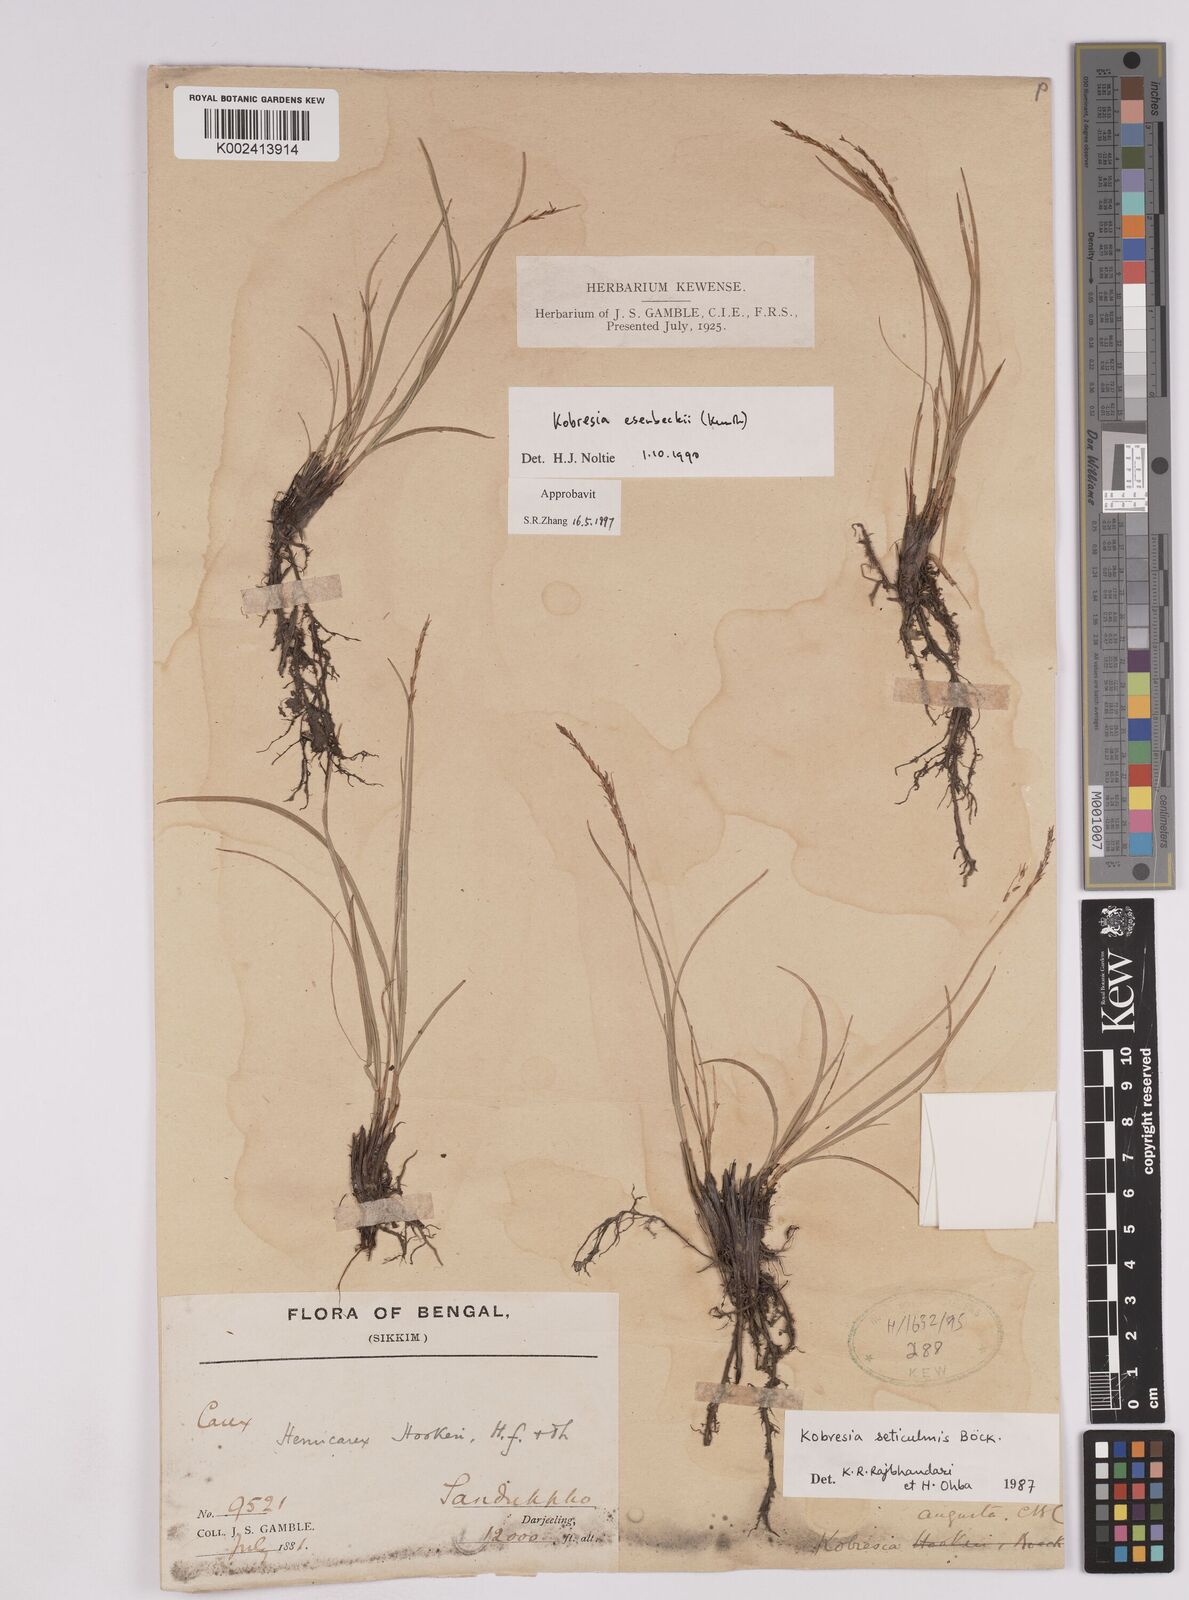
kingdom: Plantae
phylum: Tracheophyta
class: Liliopsida
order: Poales
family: Cyperaceae
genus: Carex
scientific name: Carex esenbeckii
